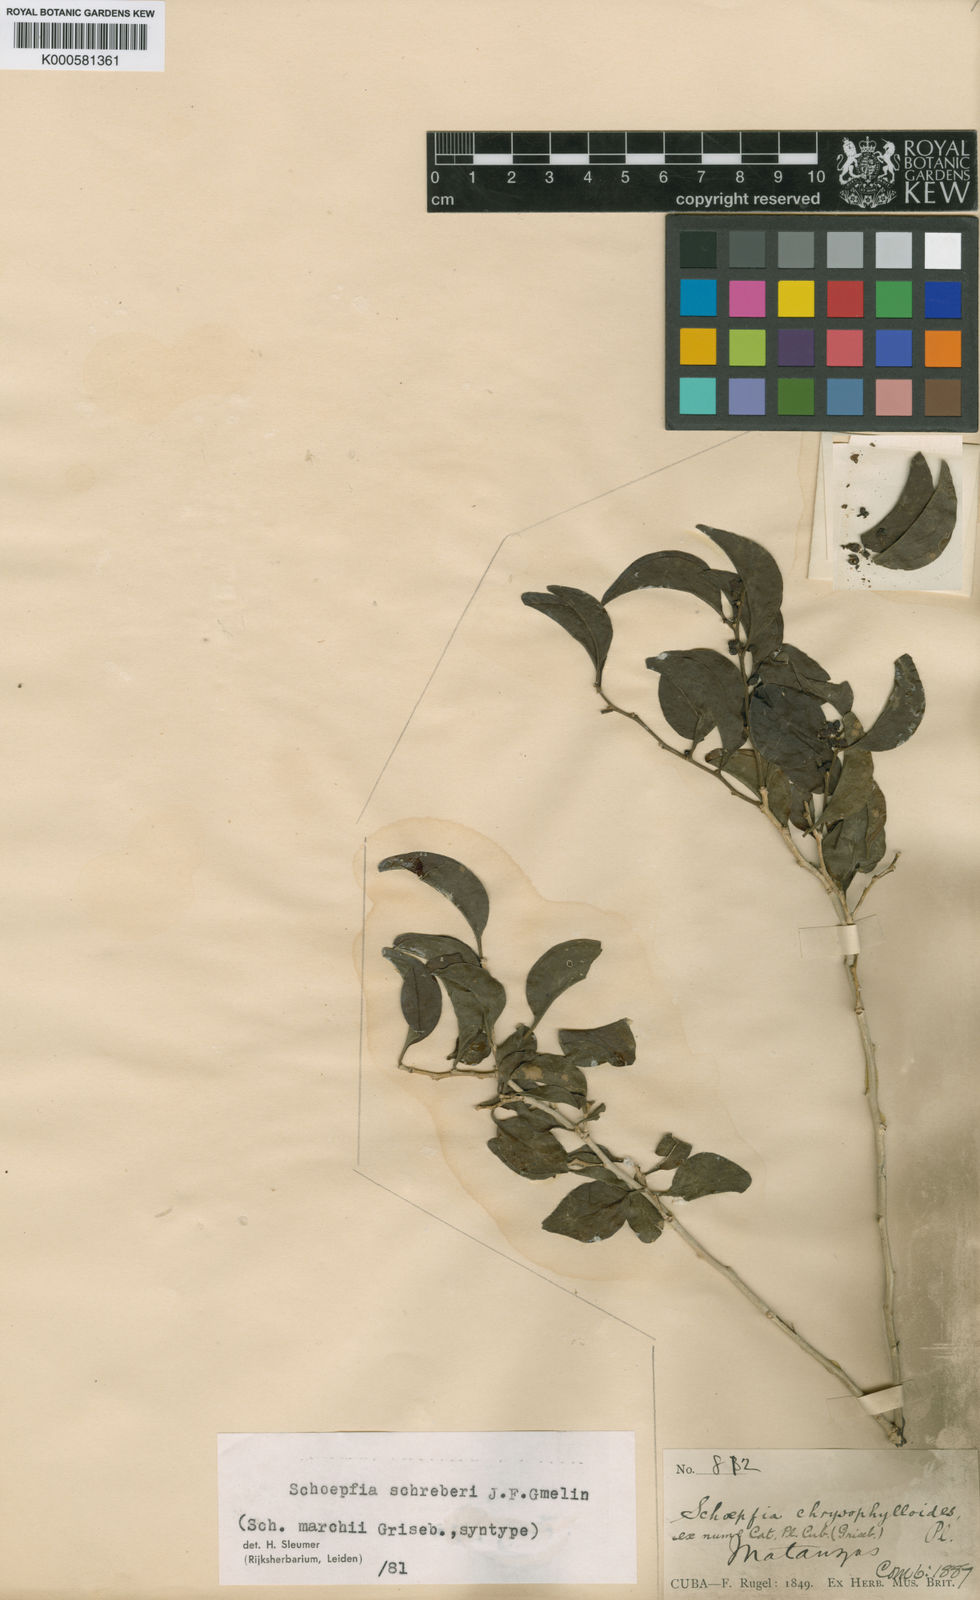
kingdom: Plantae
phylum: Tracheophyta
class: Magnoliopsida
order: Santalales
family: Schoepfiaceae
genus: Schoepfia
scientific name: Schoepfia schreberi
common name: Gulf graytwig
